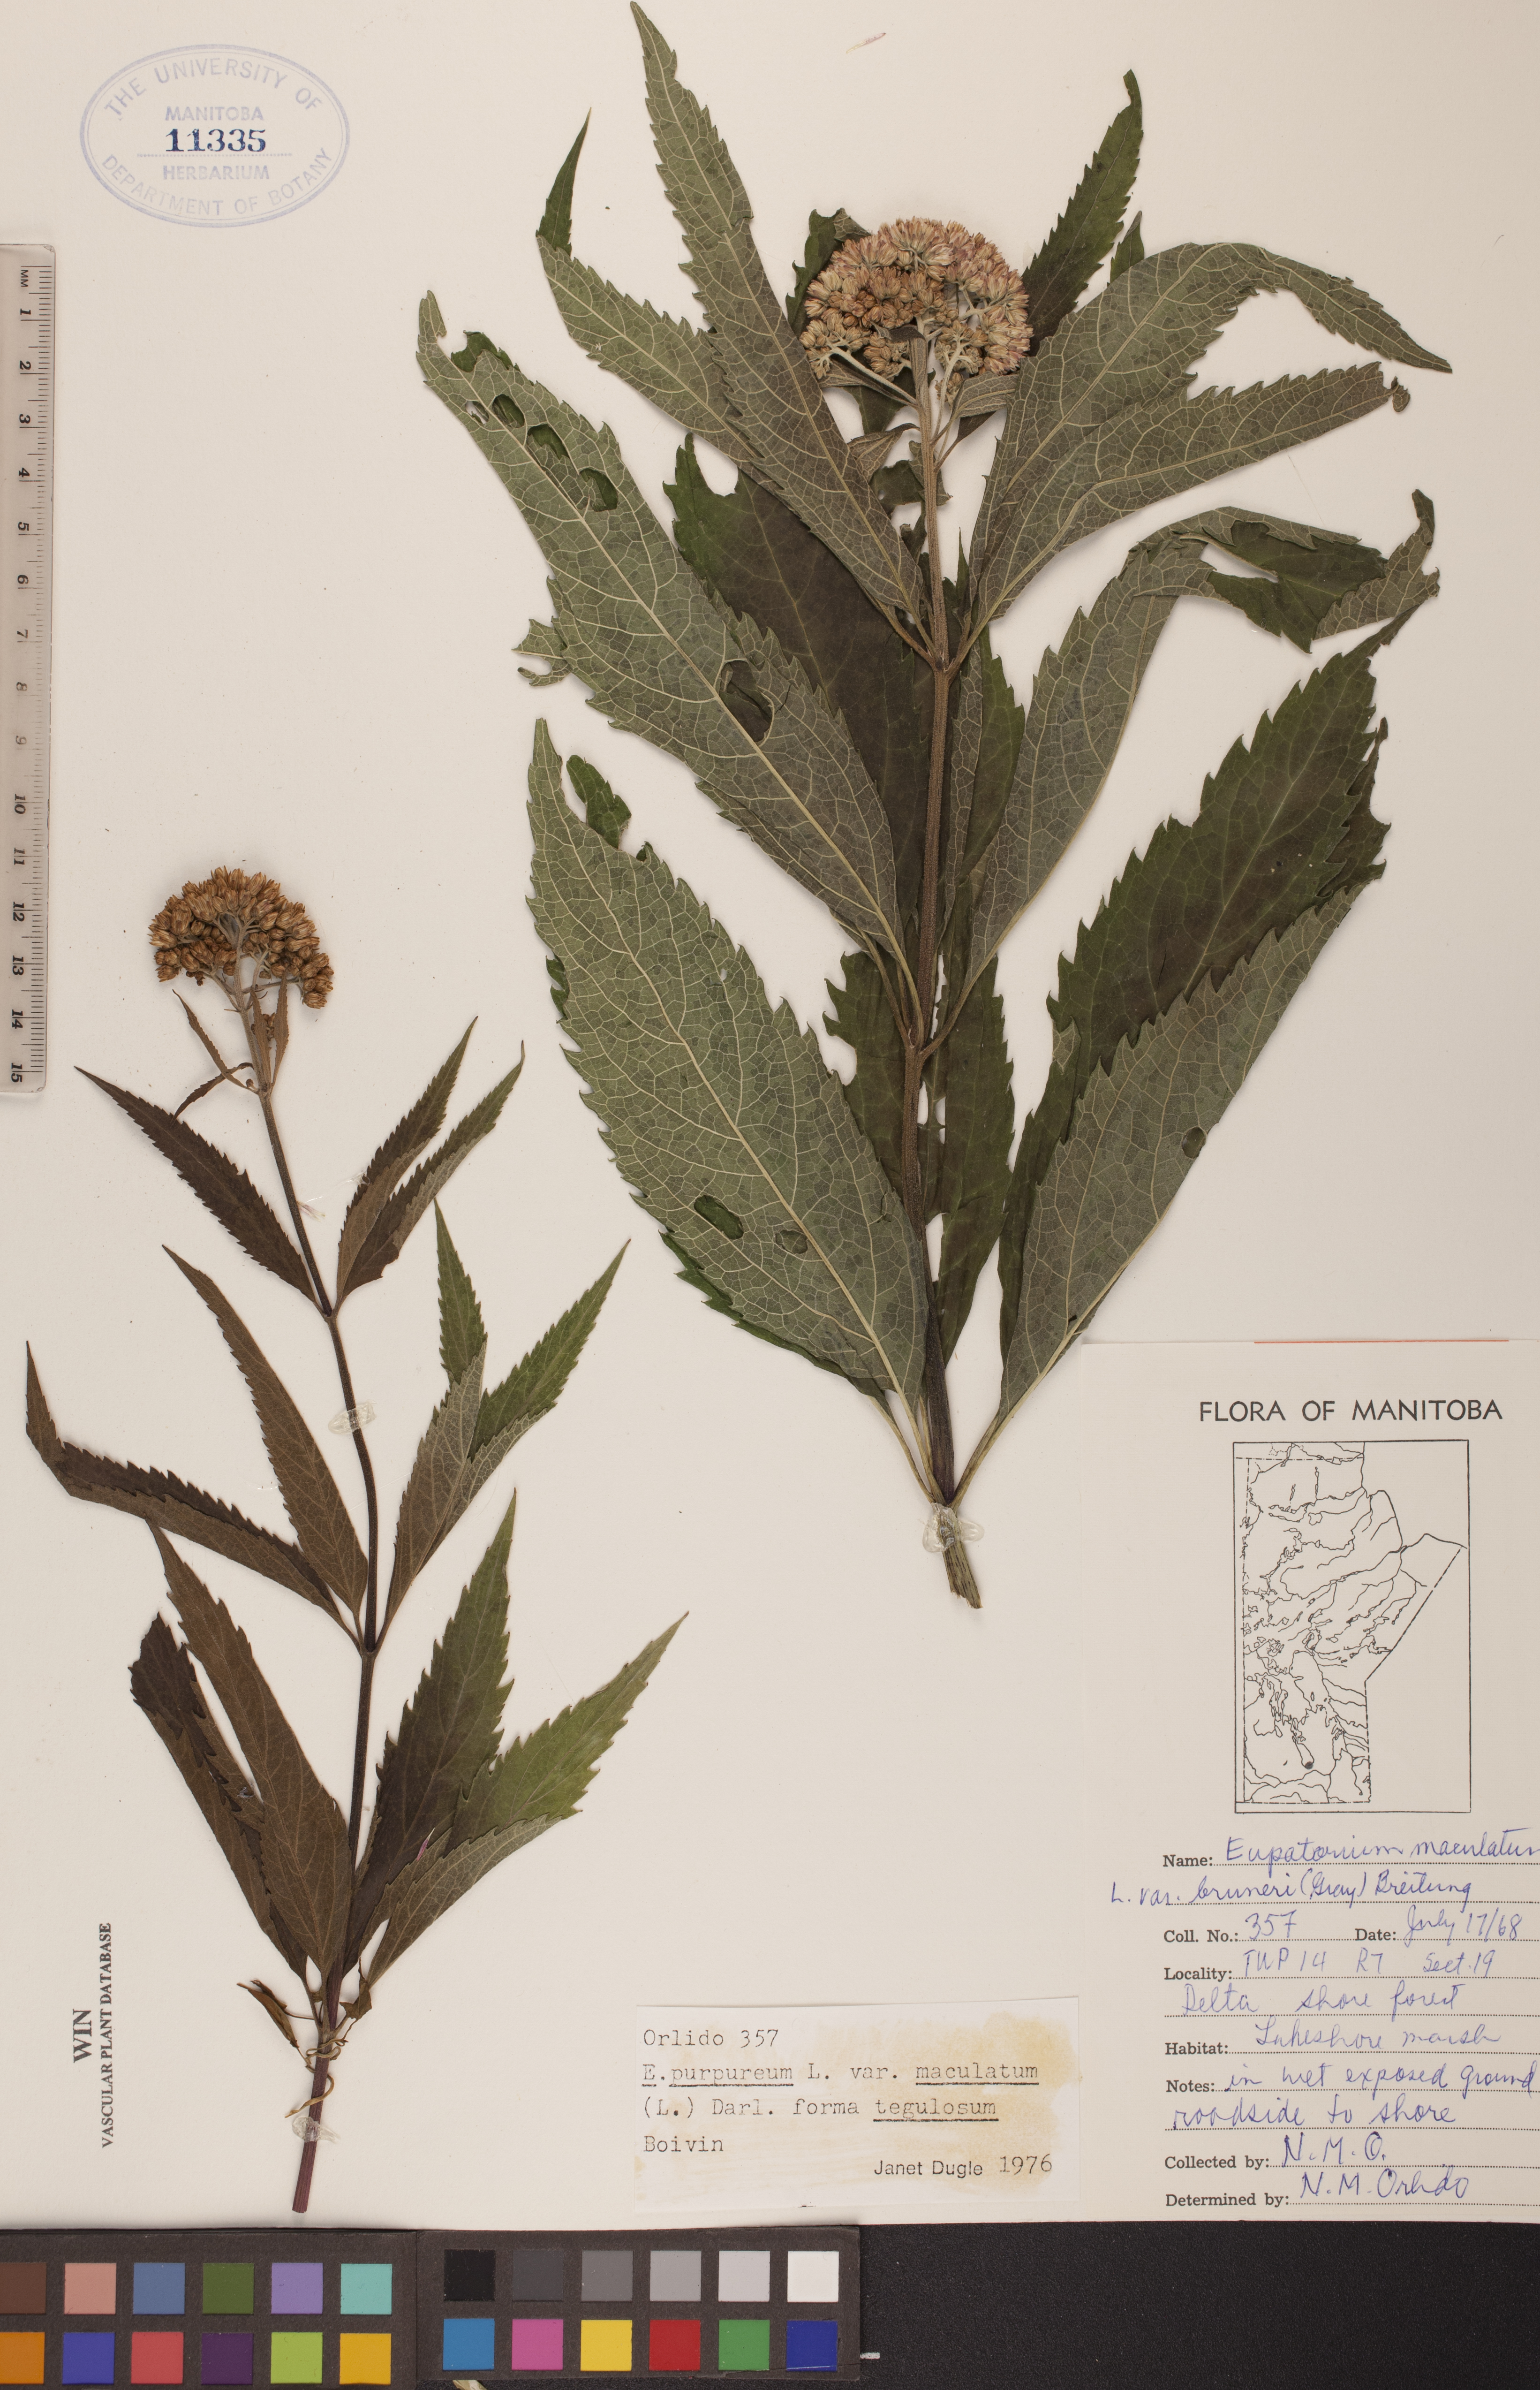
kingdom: Plantae
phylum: Tracheophyta
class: Magnoliopsida
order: Asterales
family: Asteraceae
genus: Eutrochium
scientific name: Eutrochium maculatum
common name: Spotted joe pye weed
